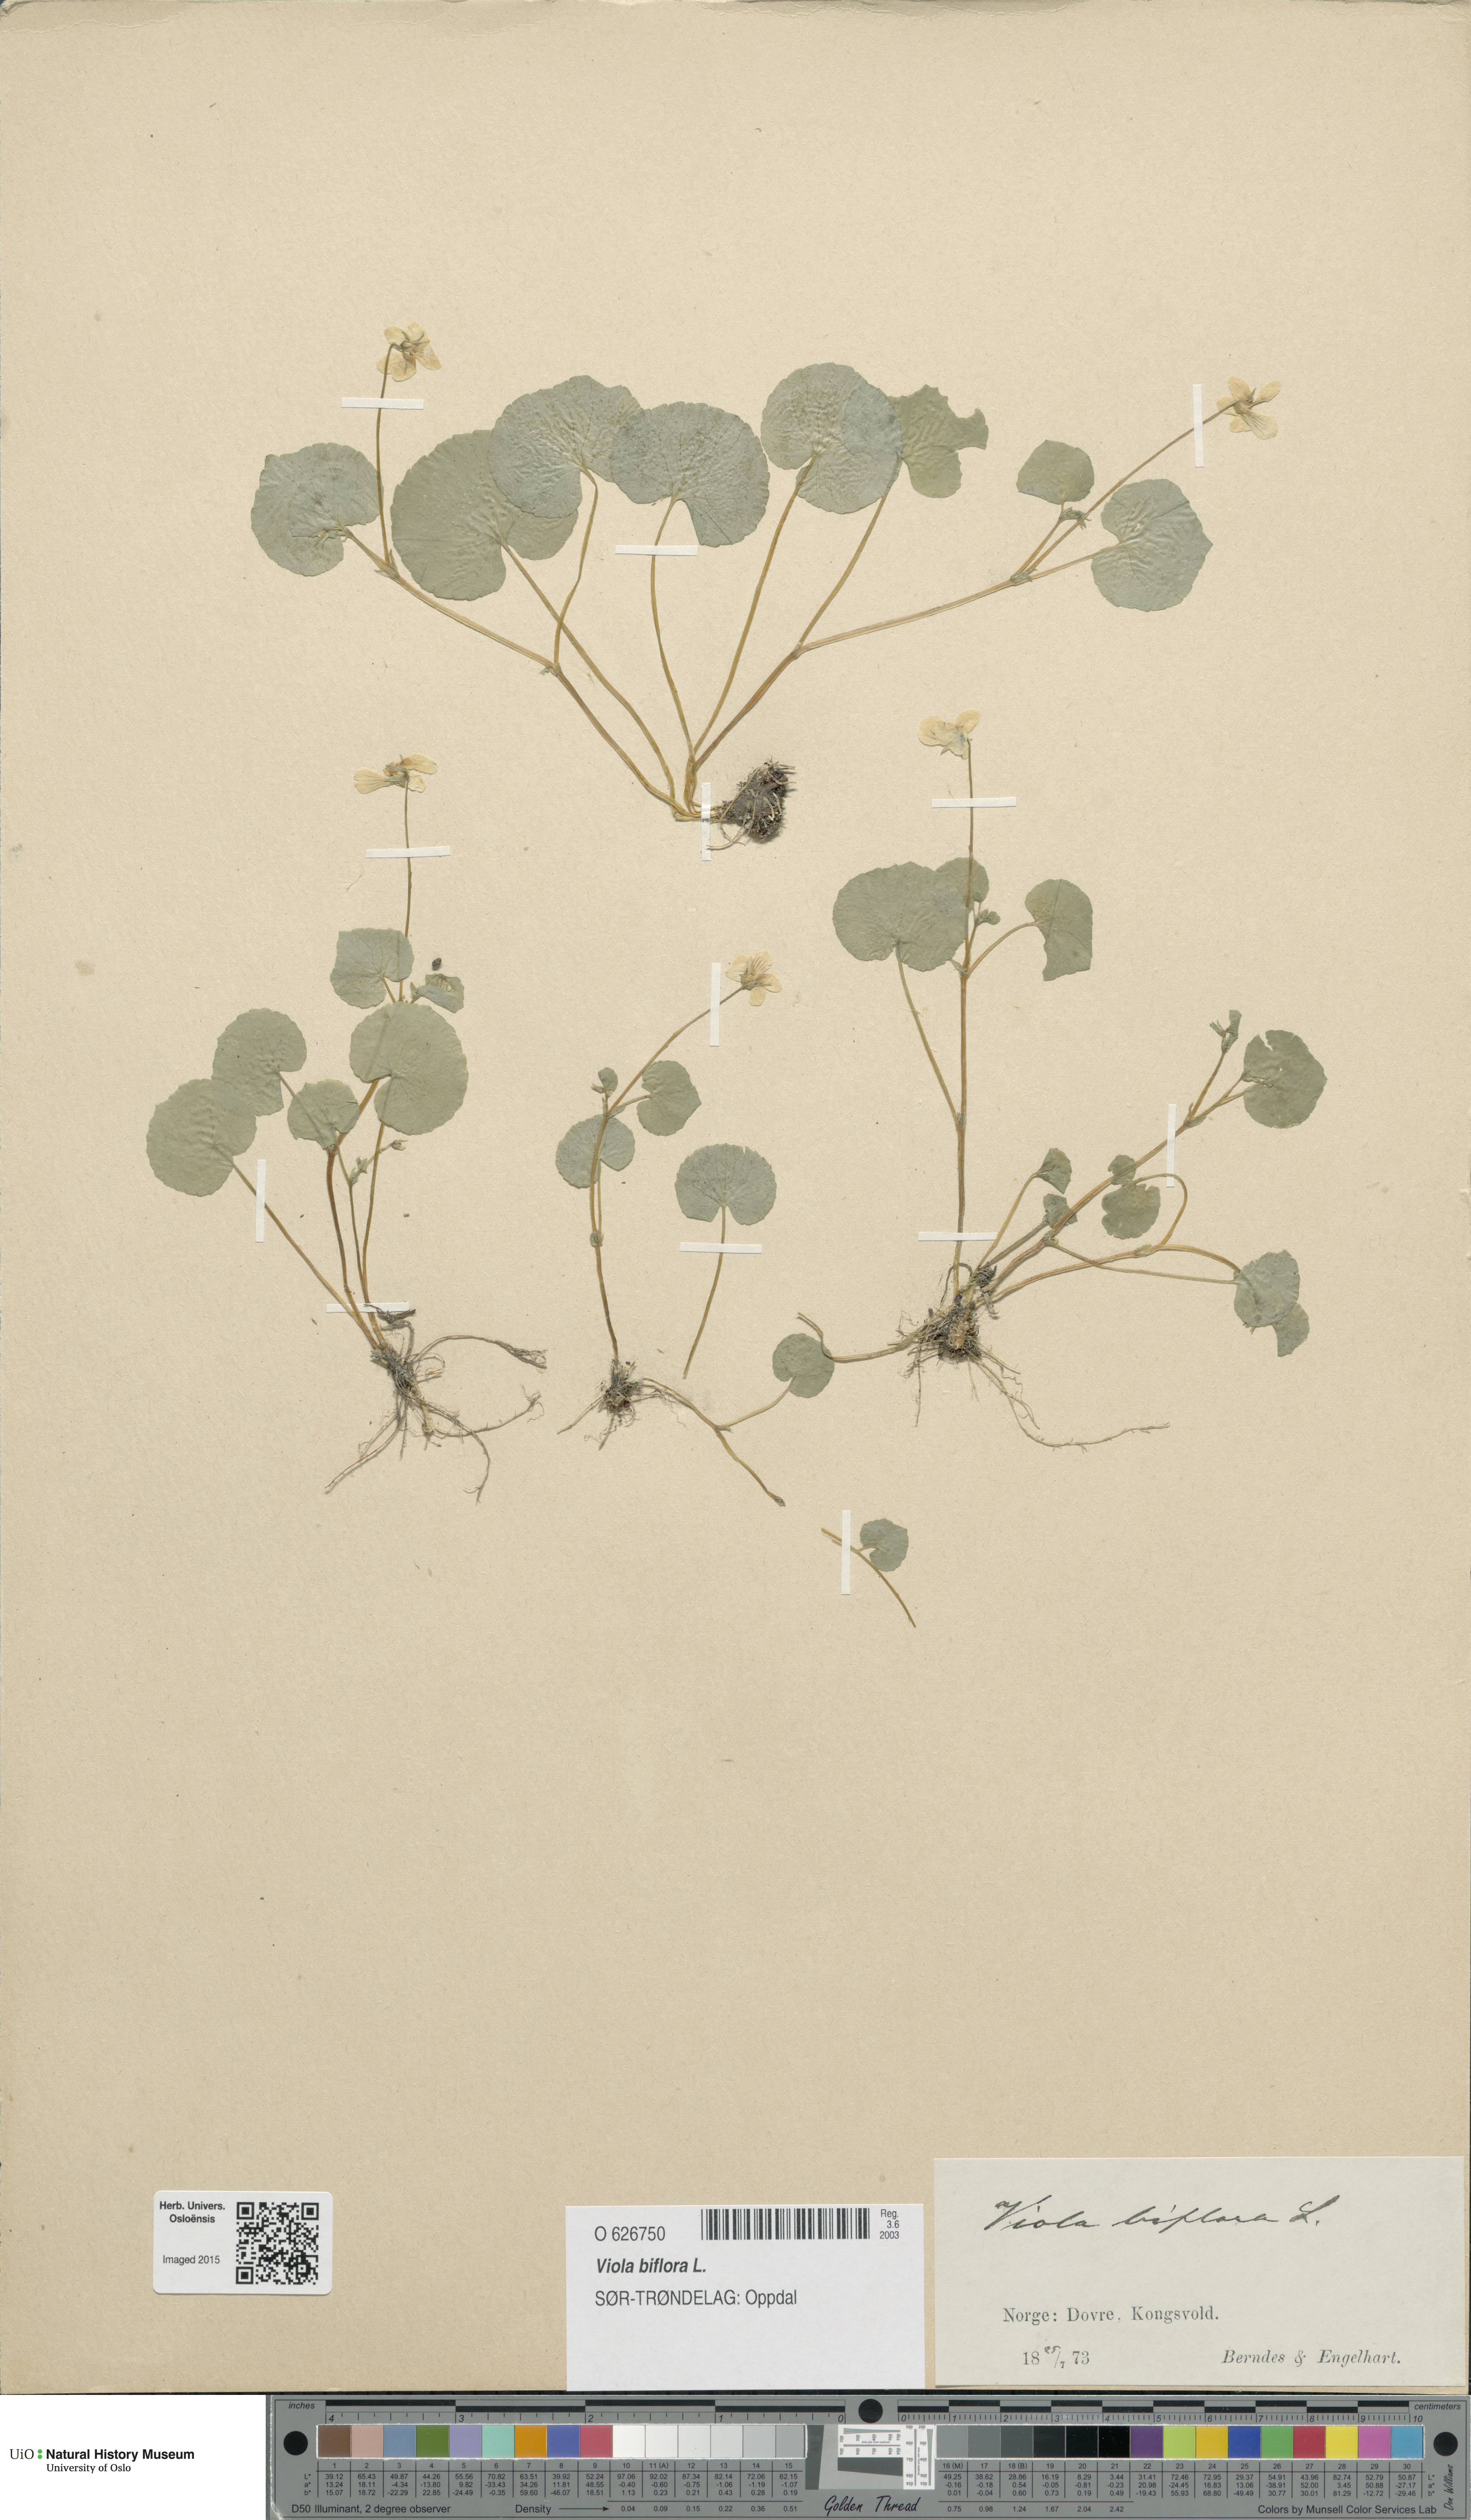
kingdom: Plantae
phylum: Tracheophyta
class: Magnoliopsida
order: Malpighiales
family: Violaceae
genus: Viola
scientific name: Viola biflora
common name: Alpine yellow violet
